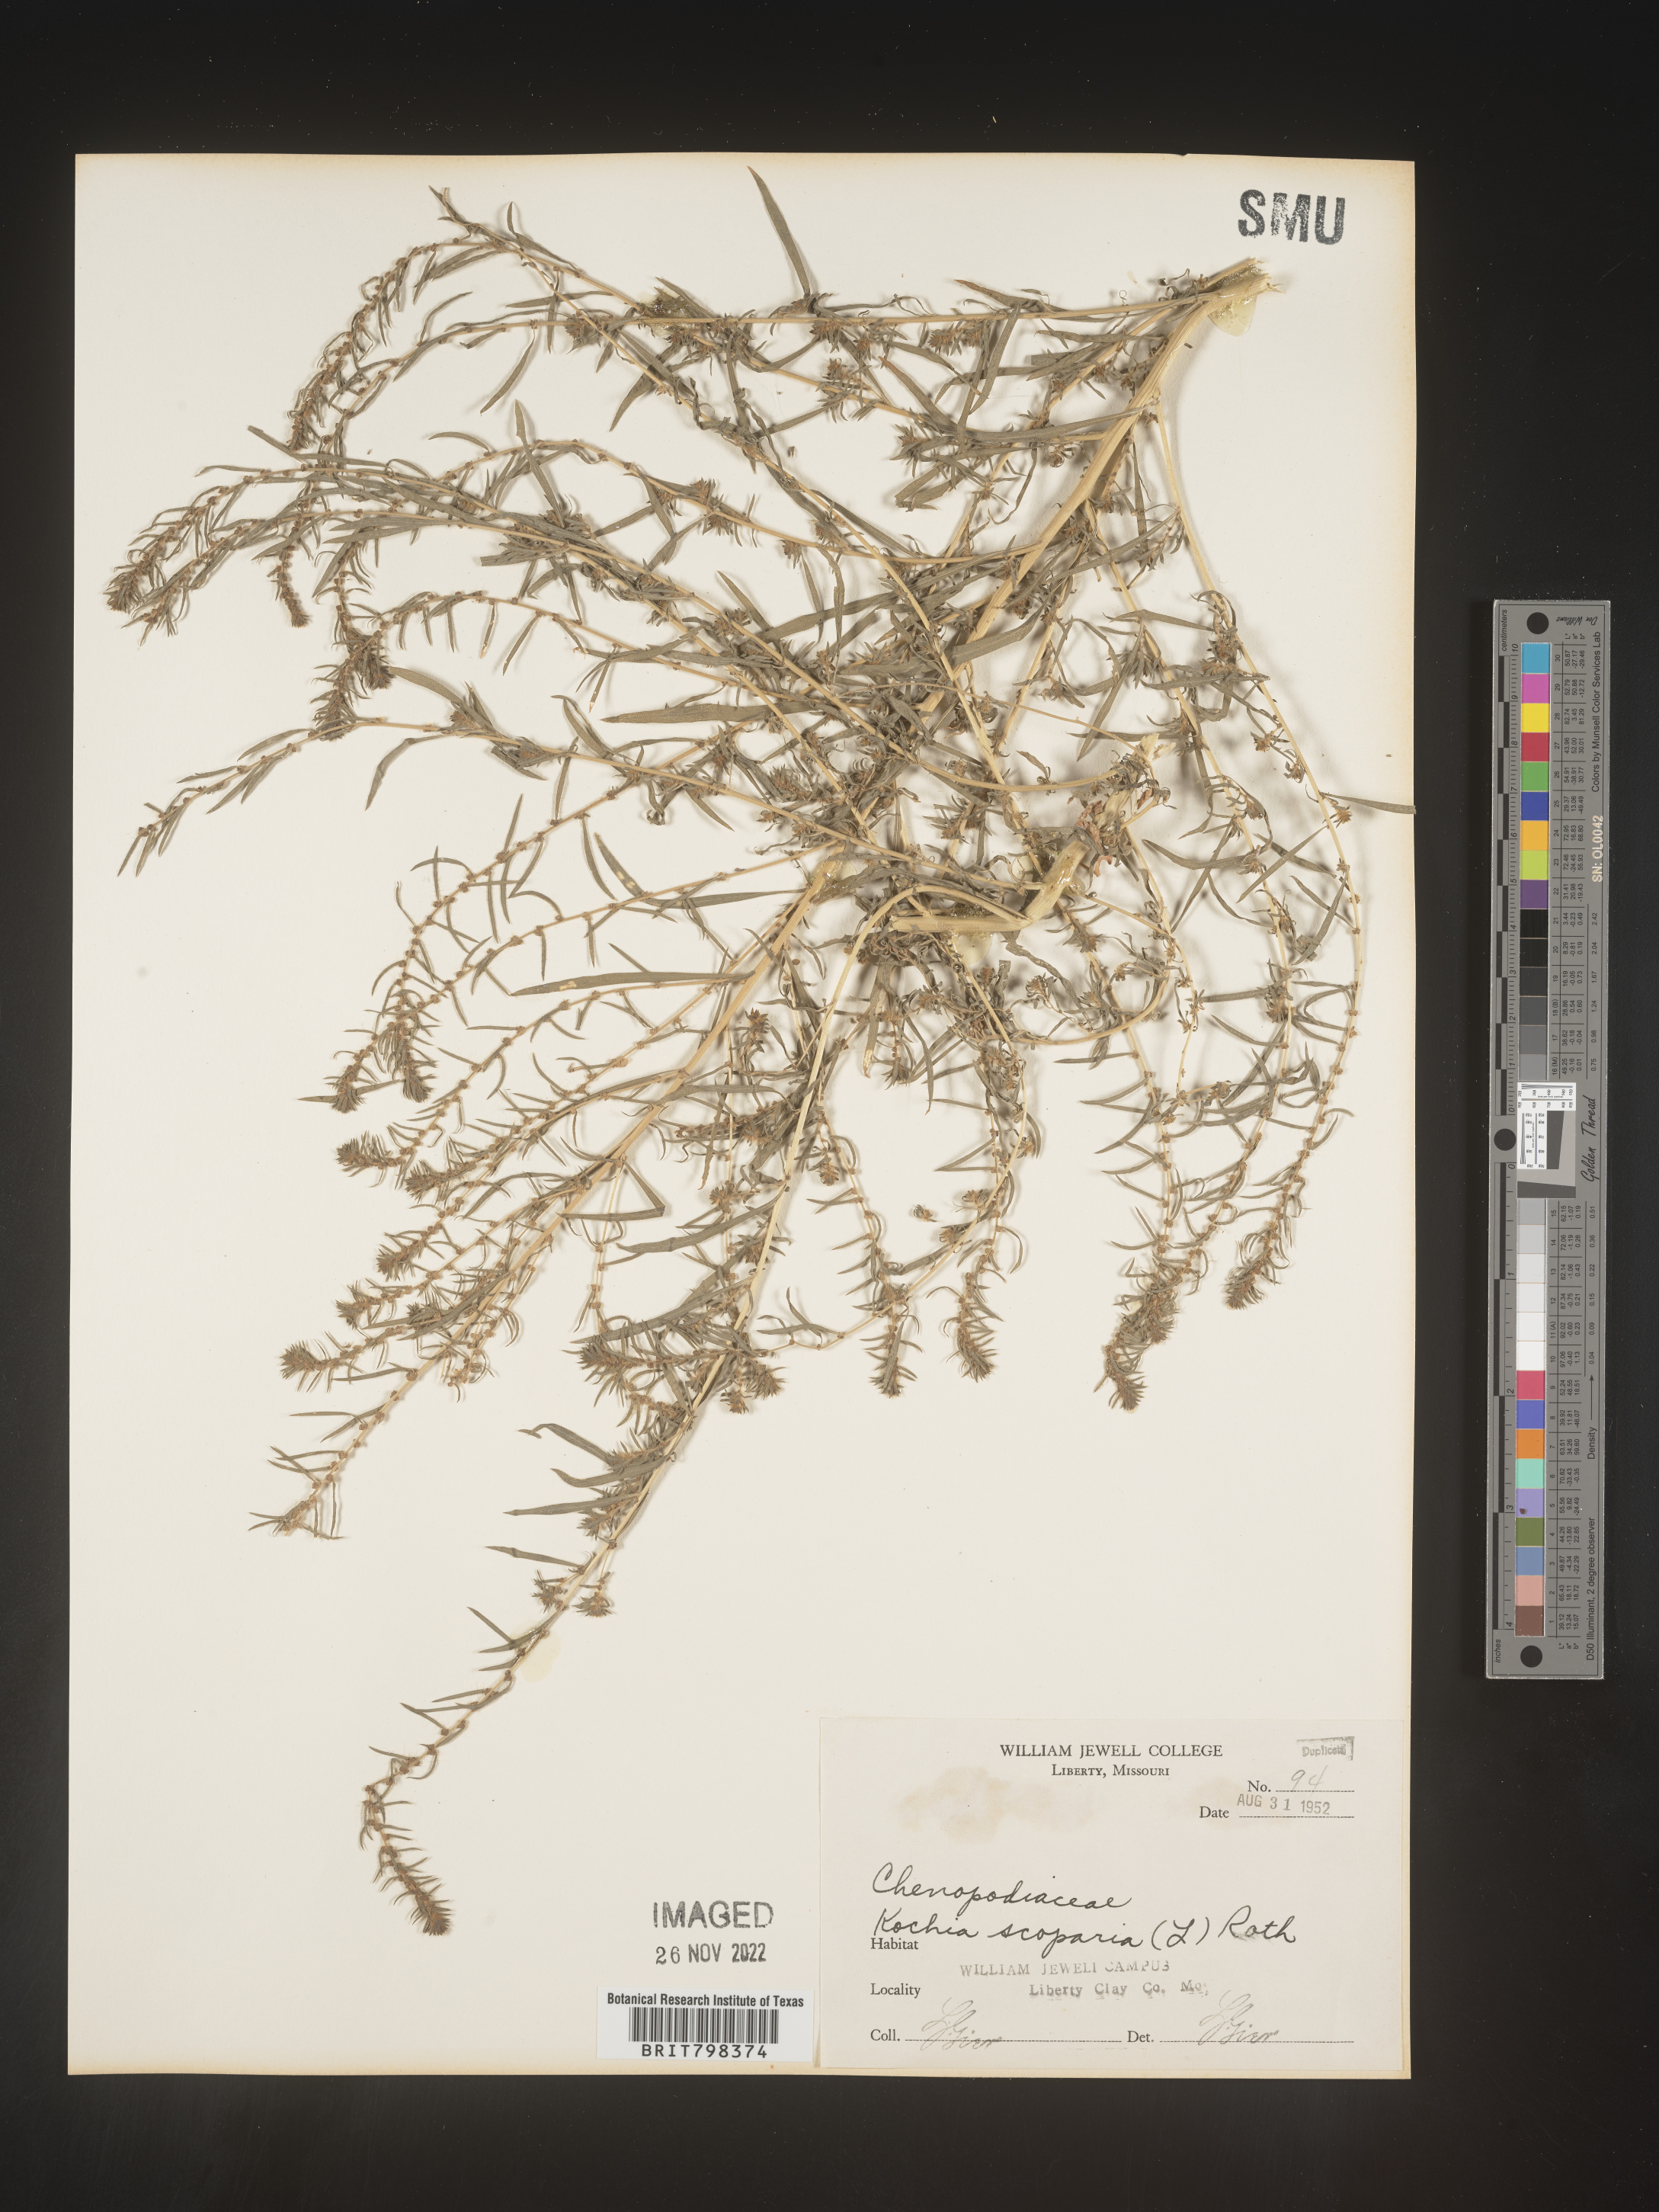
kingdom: Plantae
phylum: Tracheophyta
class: Magnoliopsida
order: Caryophyllales
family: Amaranthaceae
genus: Bassia
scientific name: Bassia
